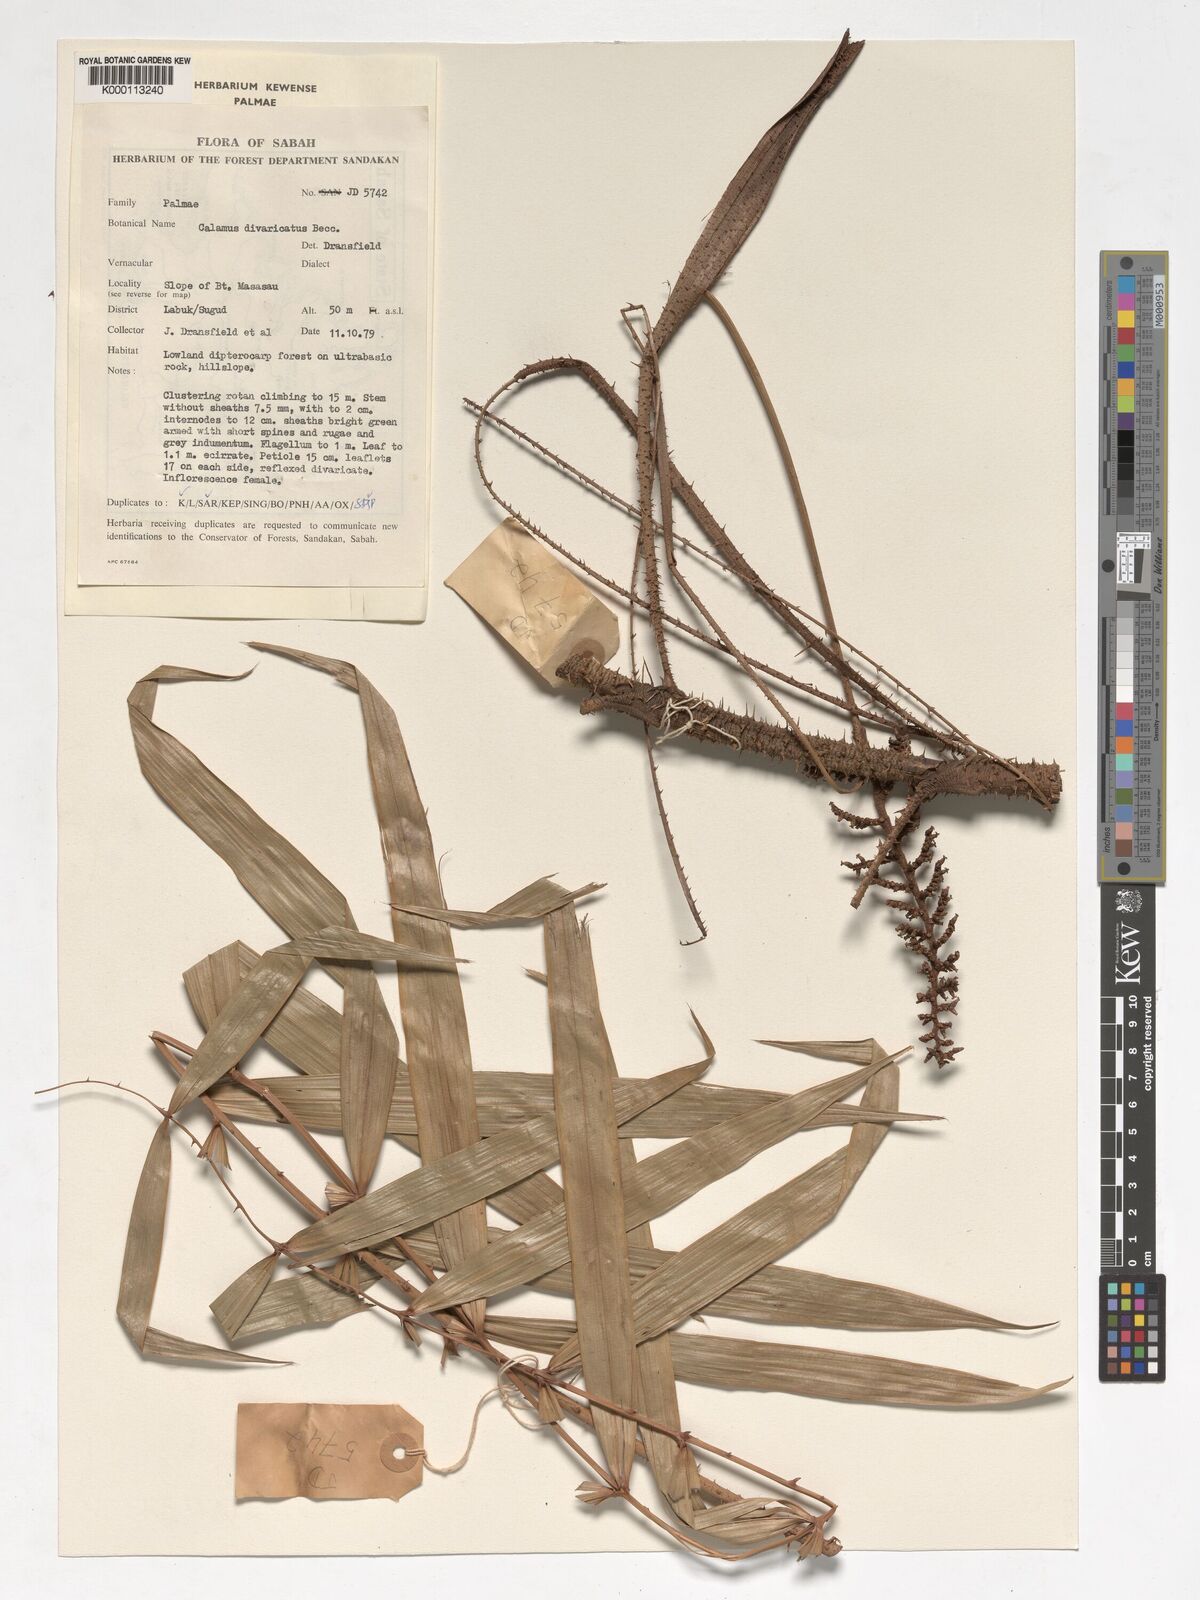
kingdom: Plantae
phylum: Tracheophyta
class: Liliopsida
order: Arecales
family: Arecaceae
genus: Calamus
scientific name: Calamus divaricatus
